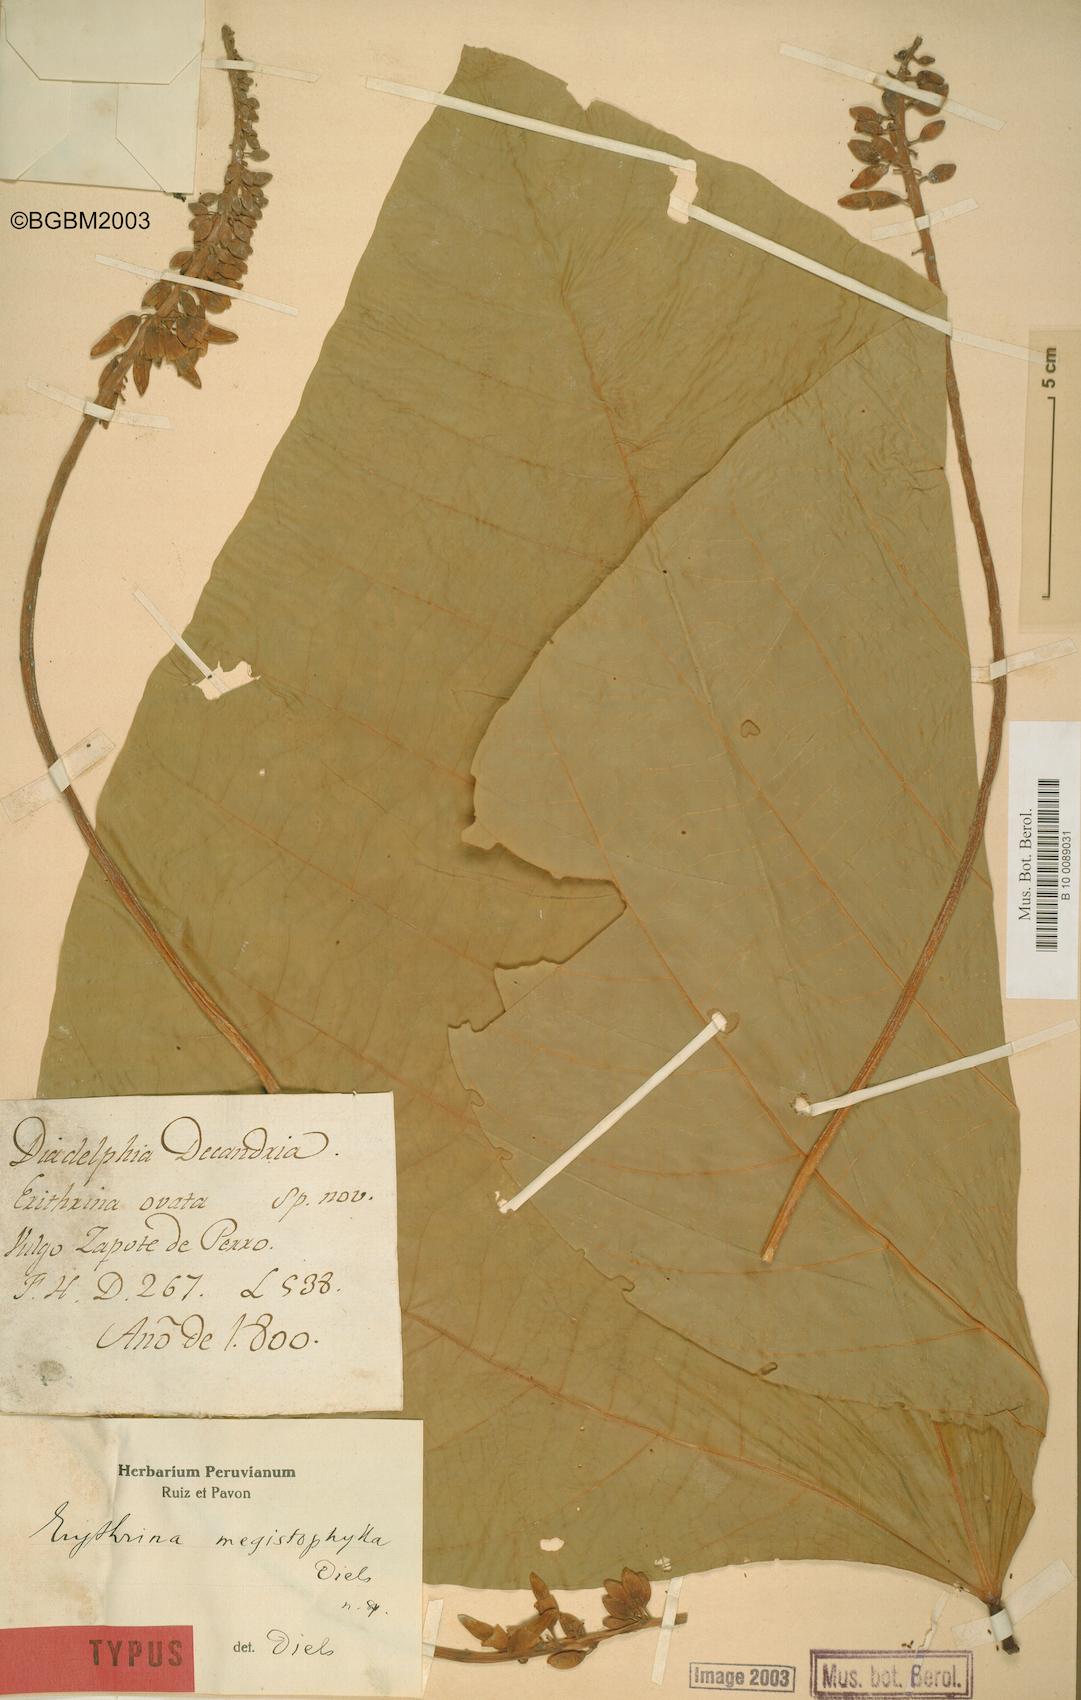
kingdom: Plantae
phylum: Tracheophyta
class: Magnoliopsida
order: Fabales
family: Fabaceae
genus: Erythrina
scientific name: Erythrina edulis
